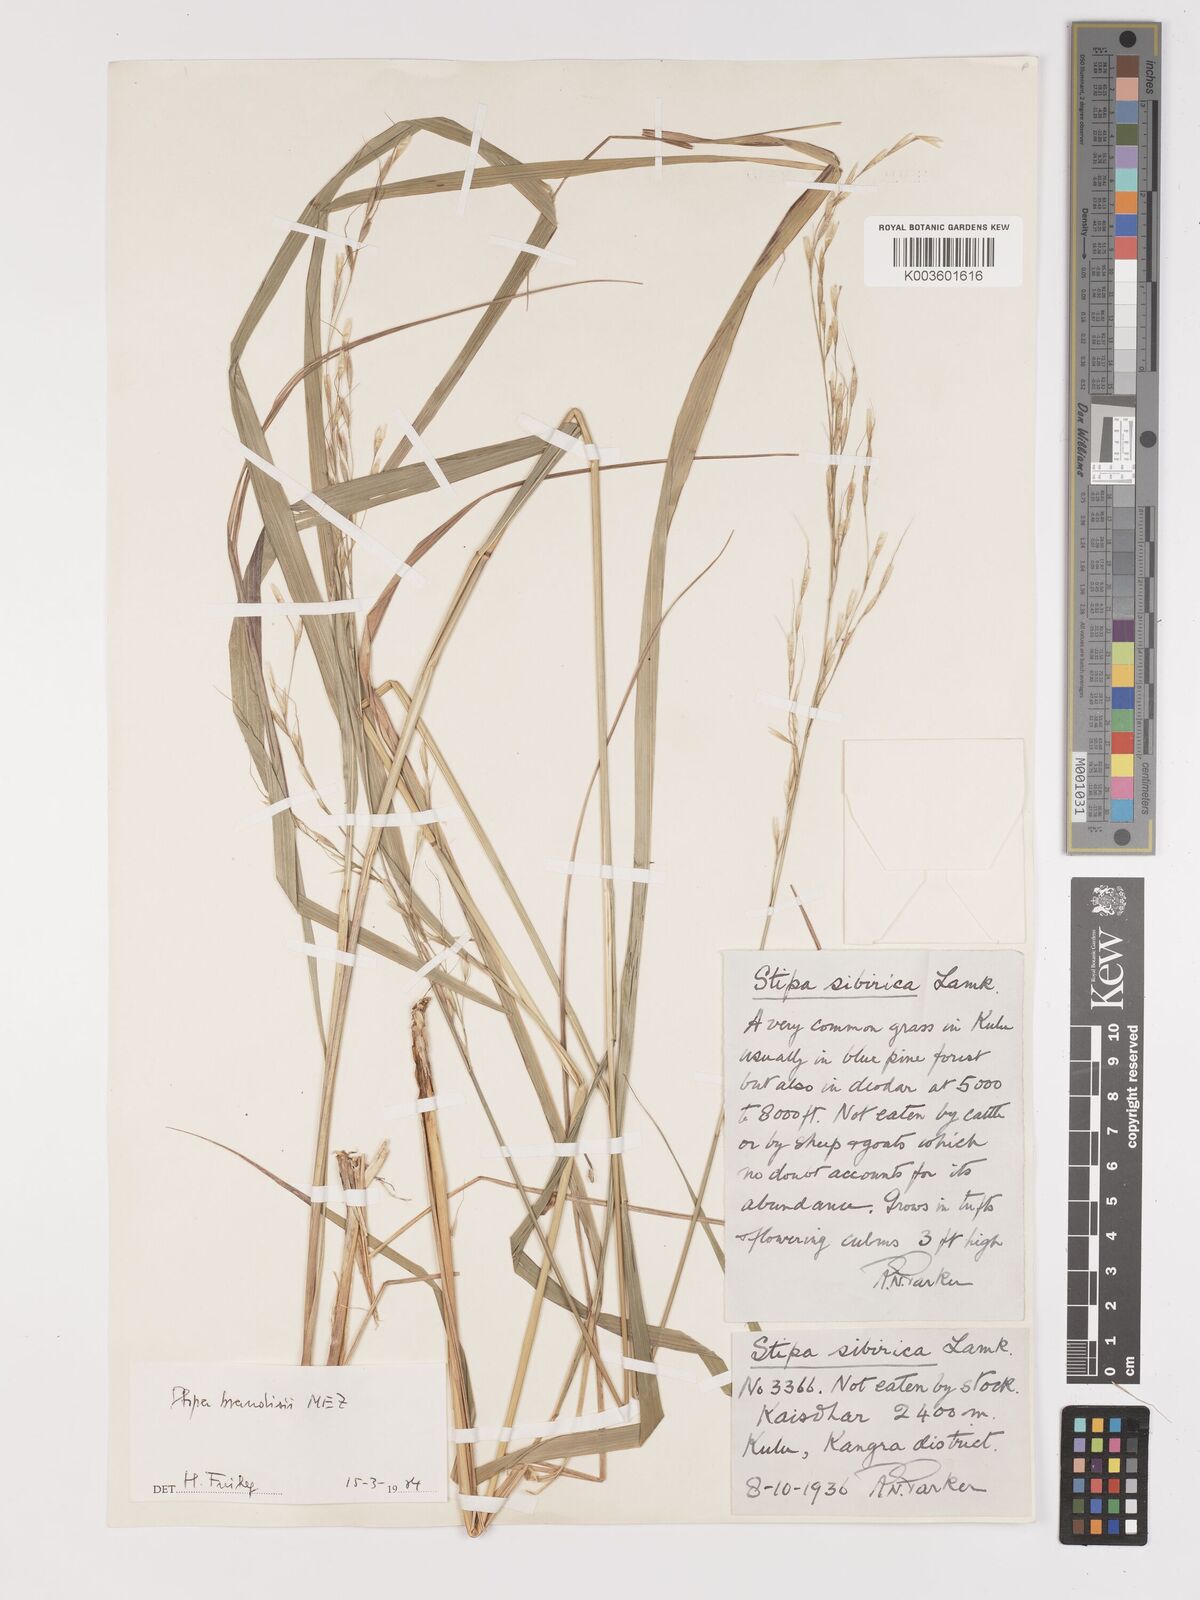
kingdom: Plantae
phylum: Tracheophyta
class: Liliopsida
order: Poales
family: Poaceae
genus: Achnatherum
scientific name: Achnatherum brandisii
